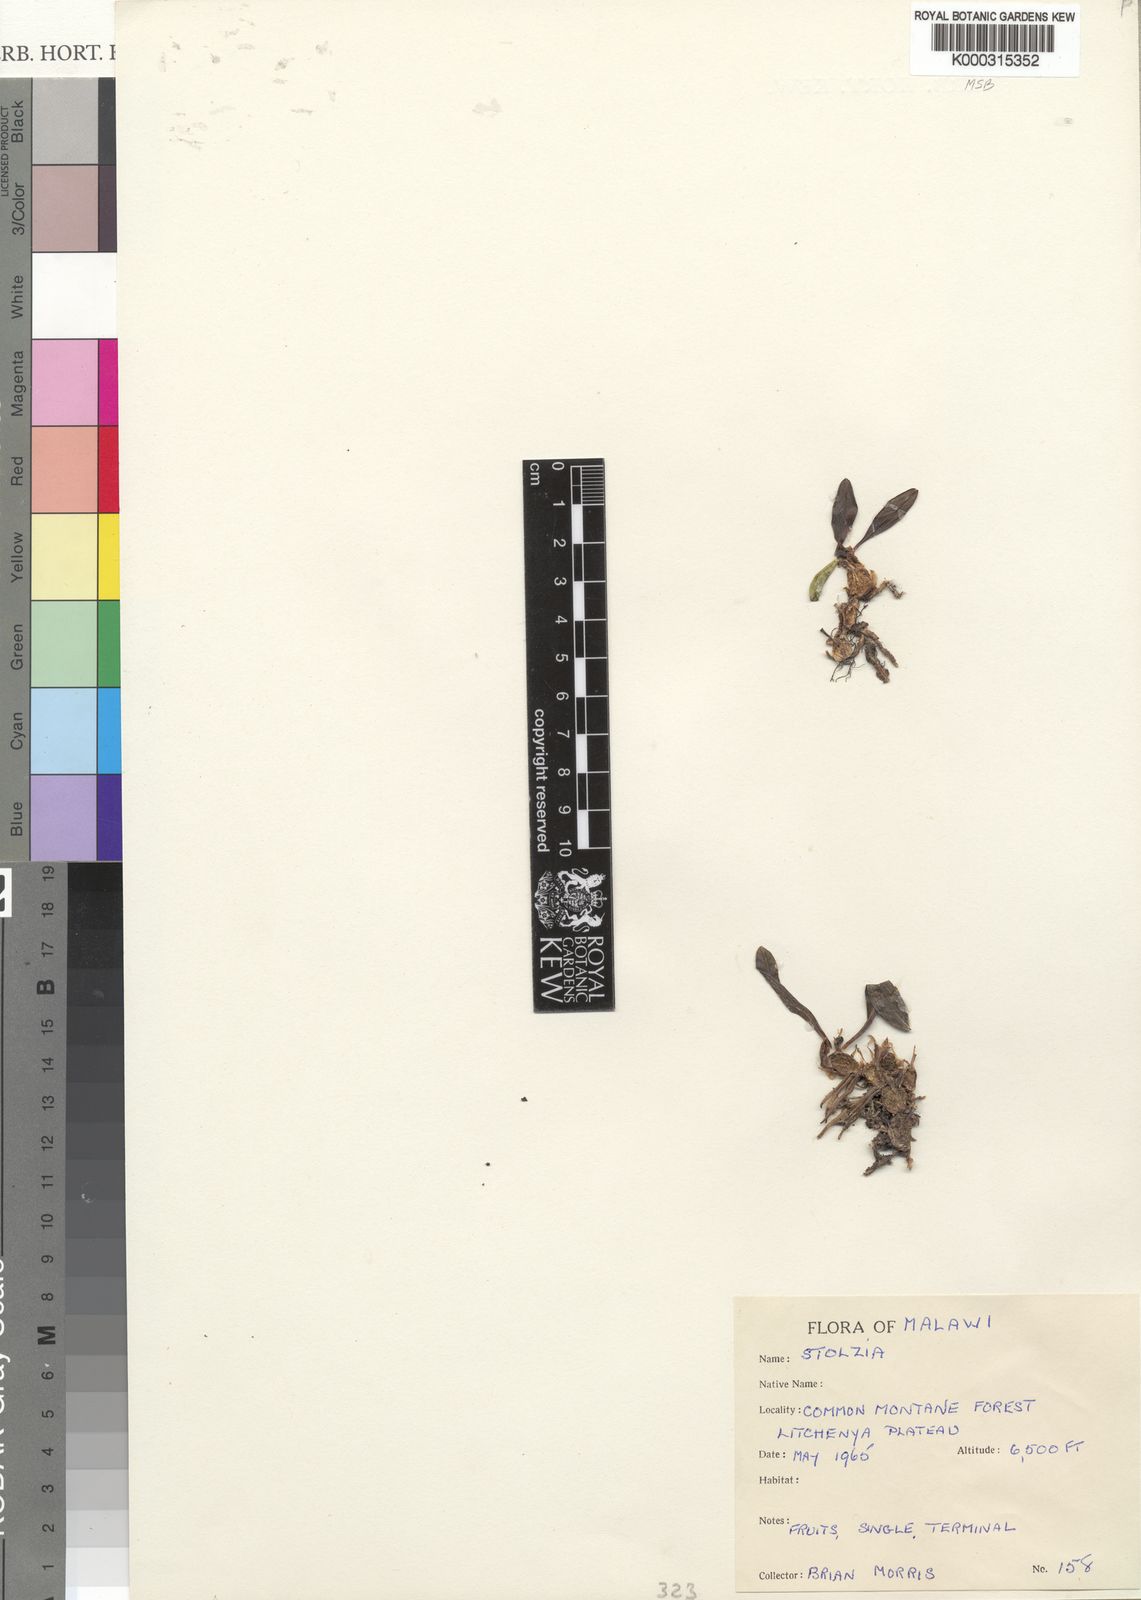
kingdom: Plantae
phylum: Tracheophyta
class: Liliopsida
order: Asparagales
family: Orchidaceae
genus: Porpax
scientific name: Porpax compacta
